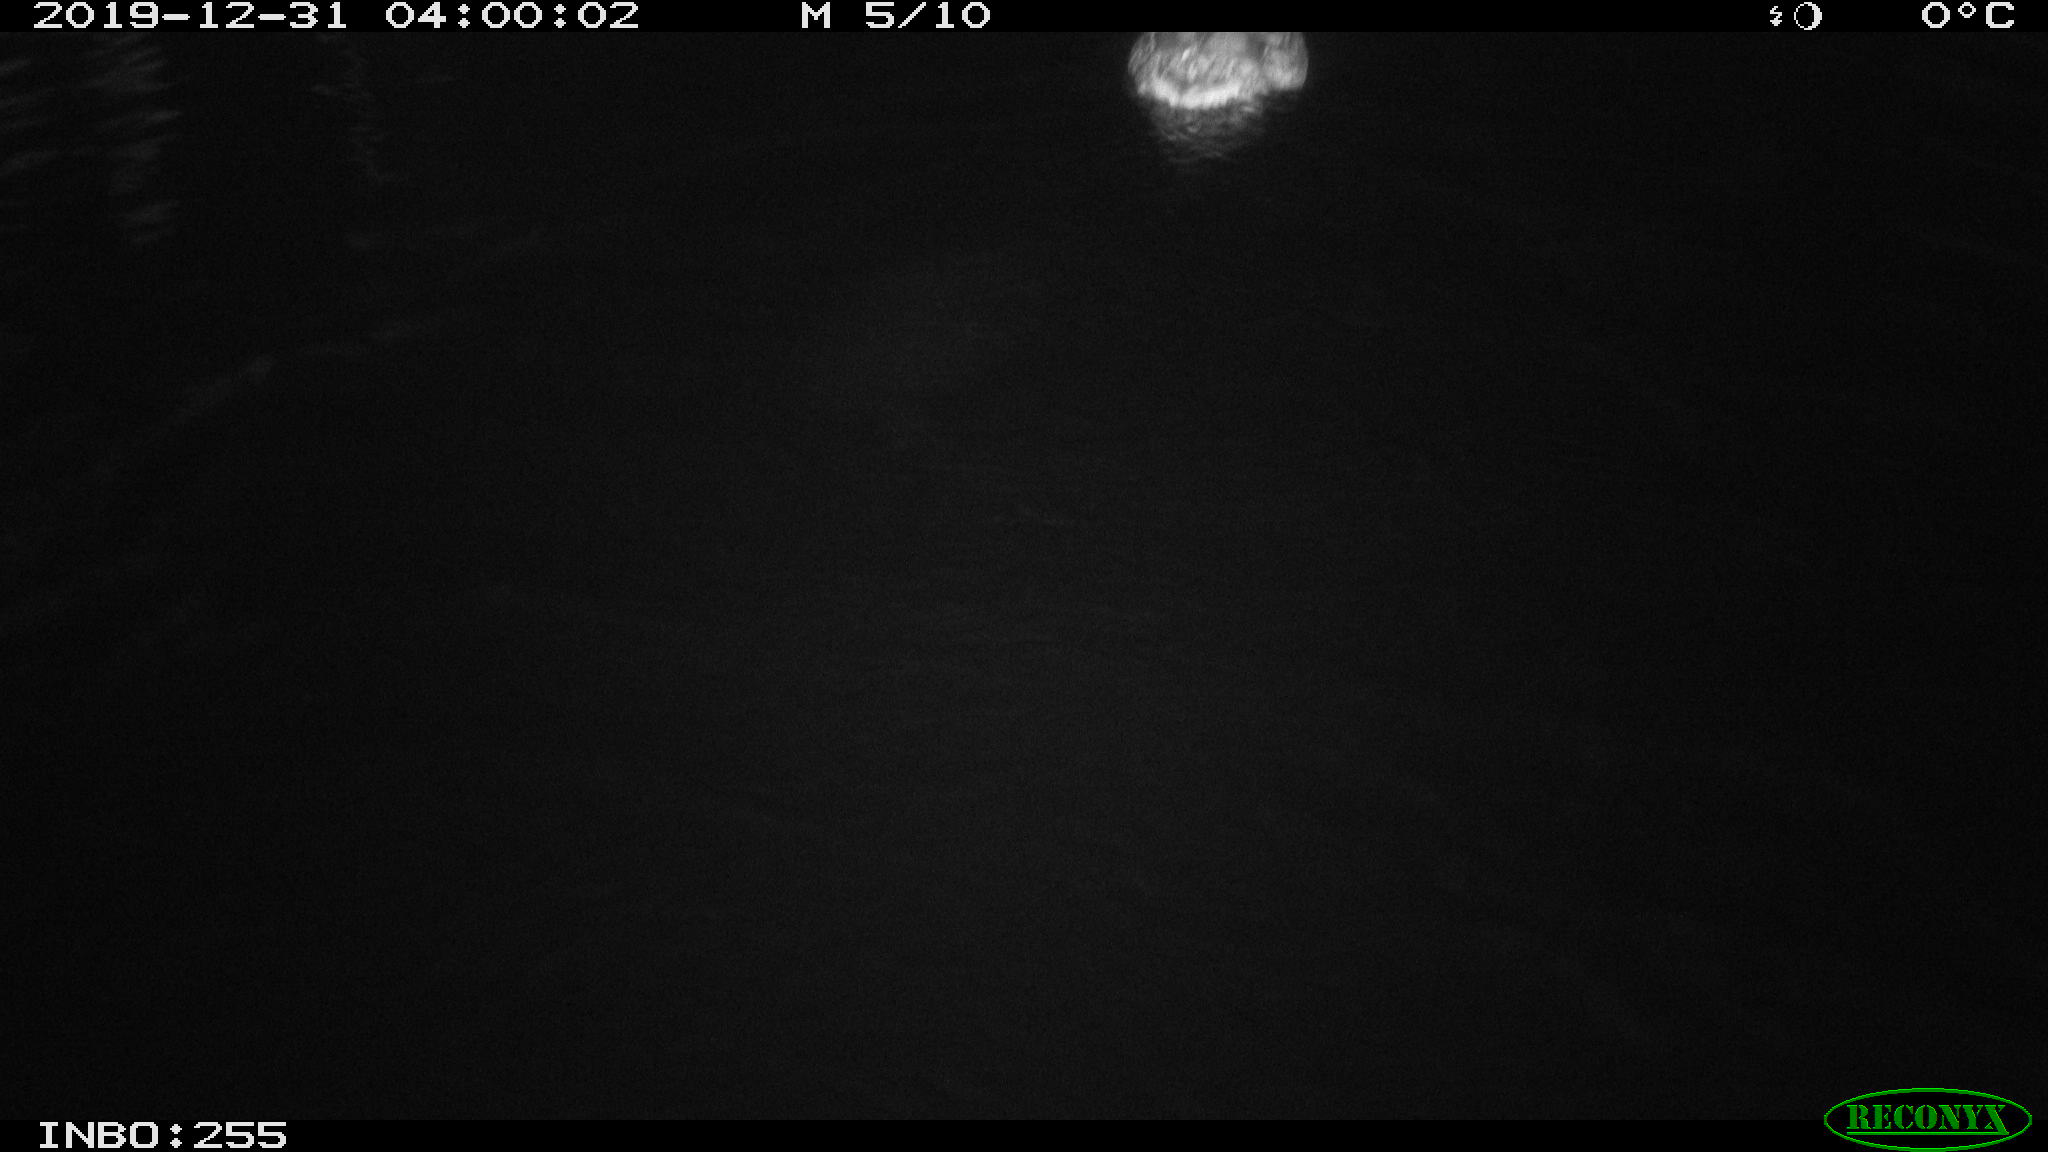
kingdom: Animalia
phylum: Chordata
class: Aves
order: Anseriformes
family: Anatidae
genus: Anas
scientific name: Anas platyrhynchos
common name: Mallard
